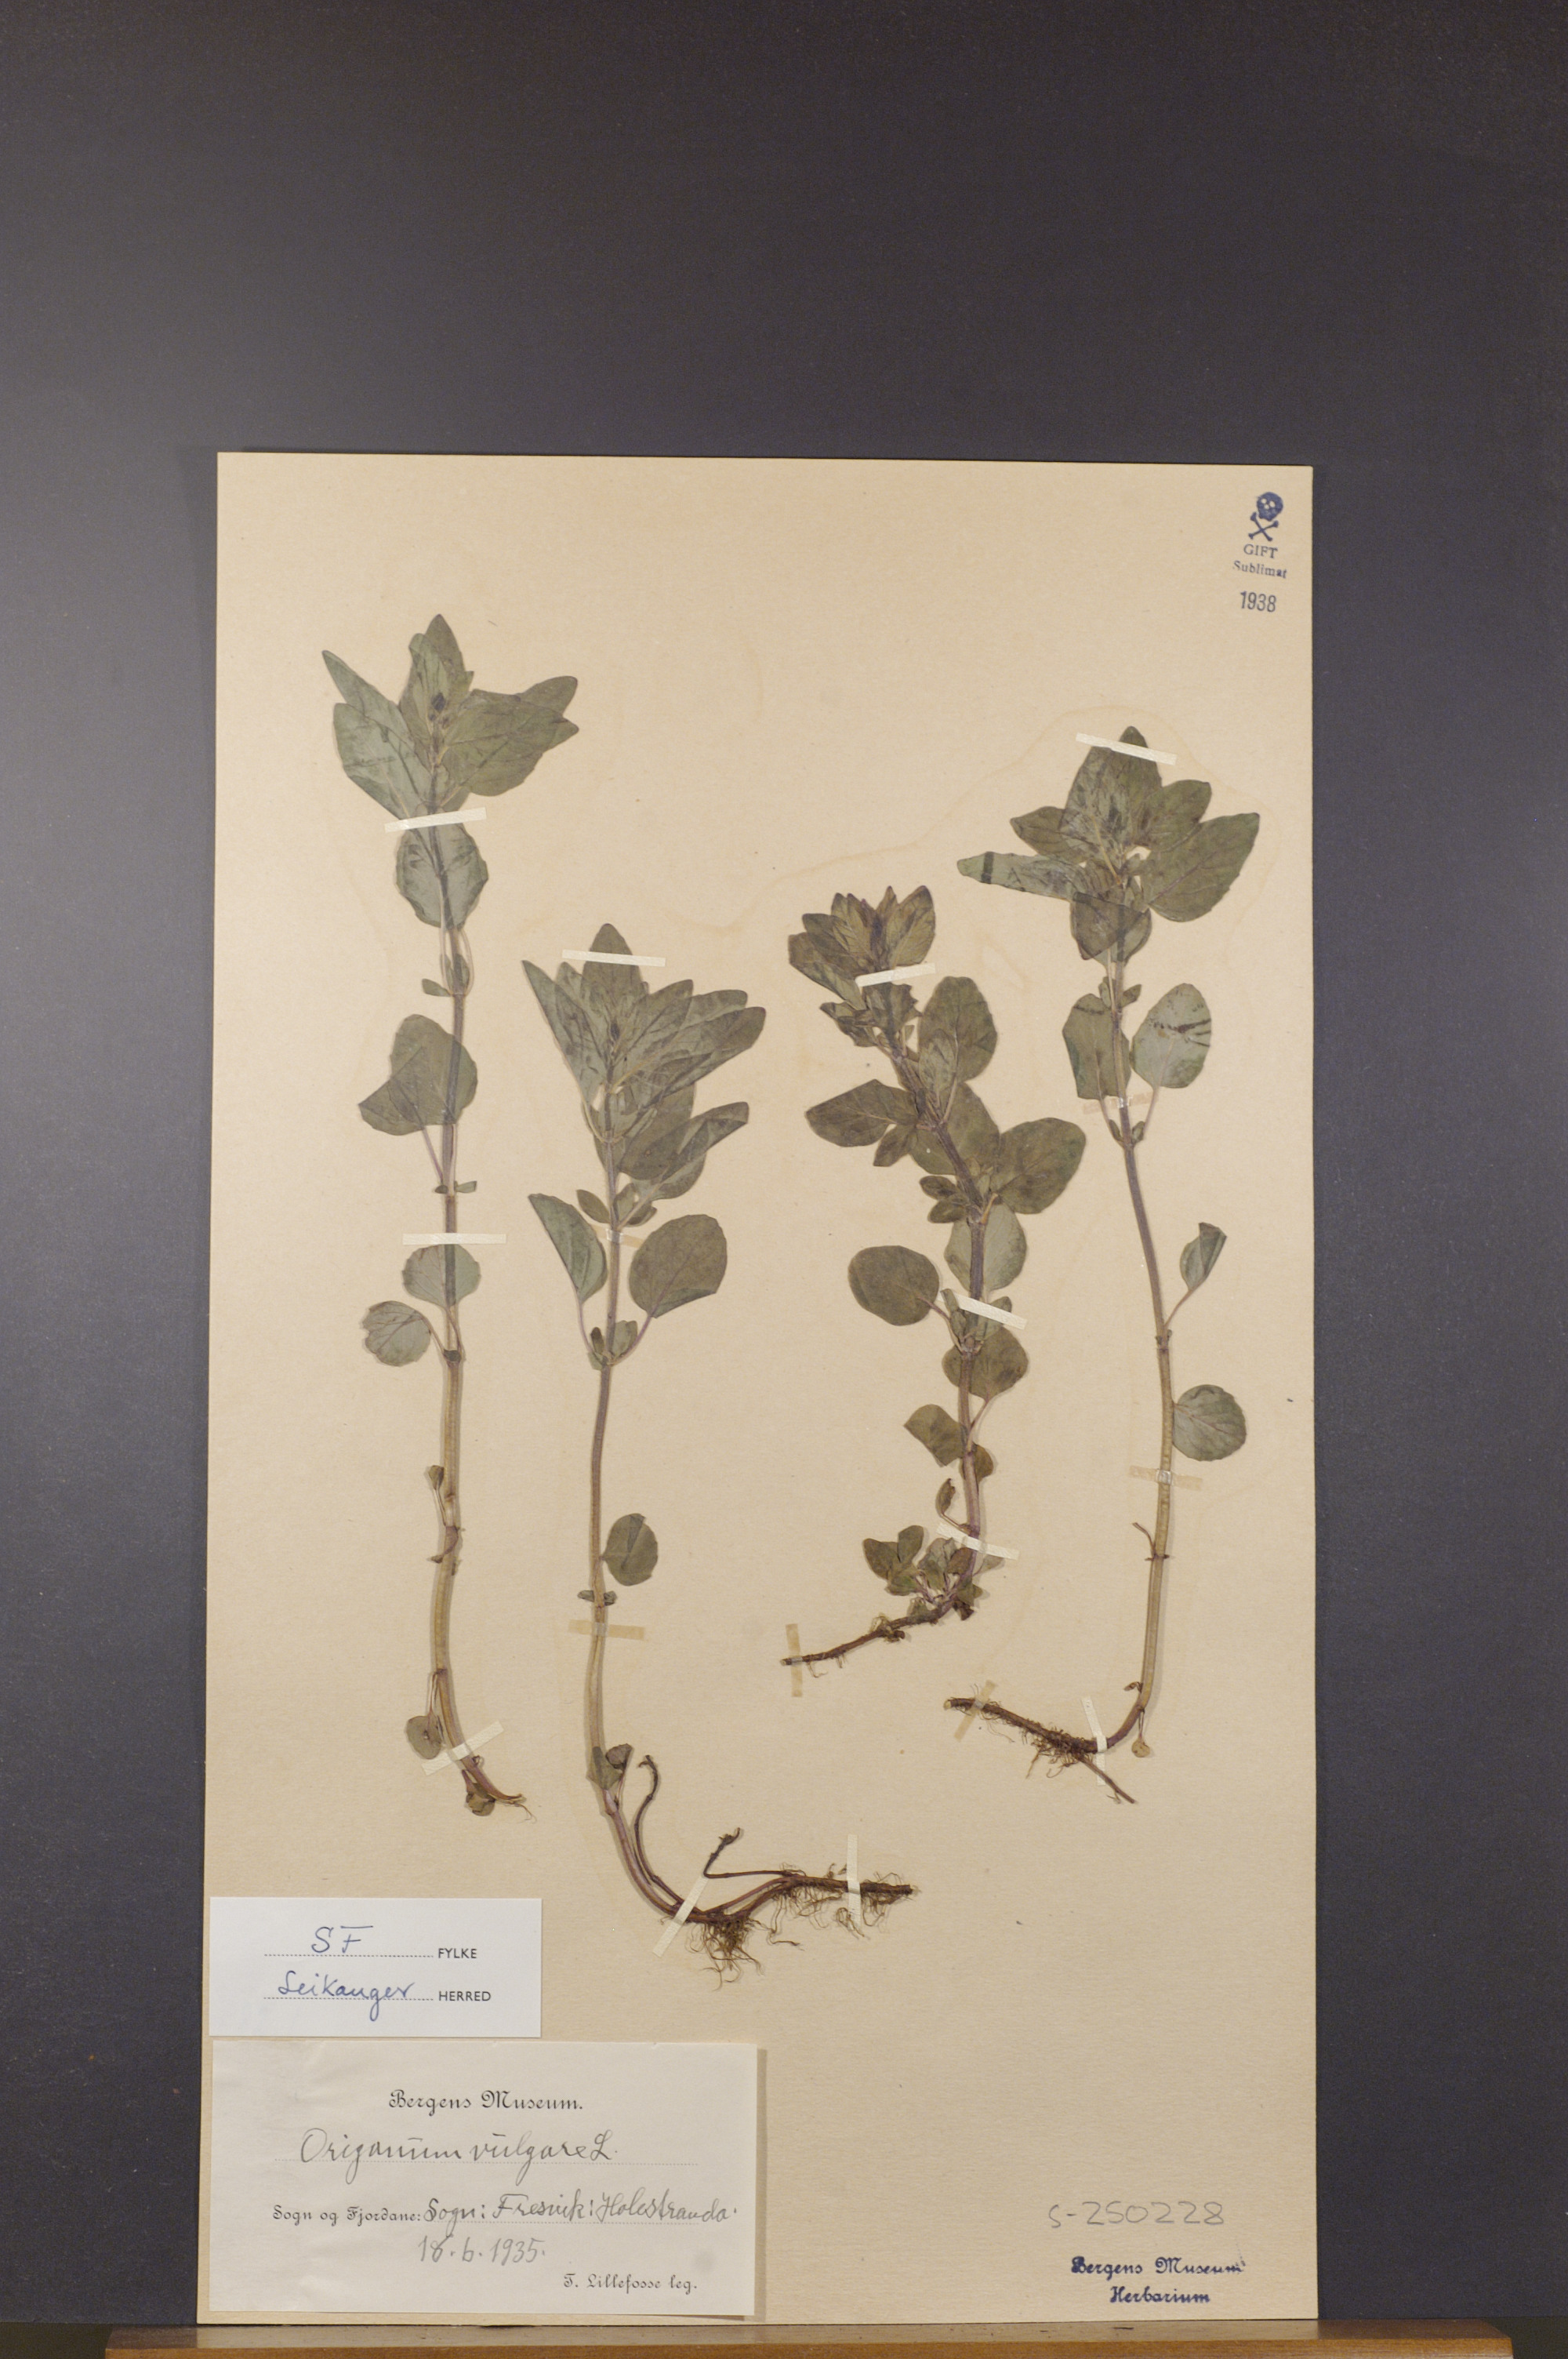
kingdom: Plantae
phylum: Tracheophyta
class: Magnoliopsida
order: Lamiales
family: Lamiaceae
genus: Origanum
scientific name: Origanum vulgare
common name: Wild marjoram
